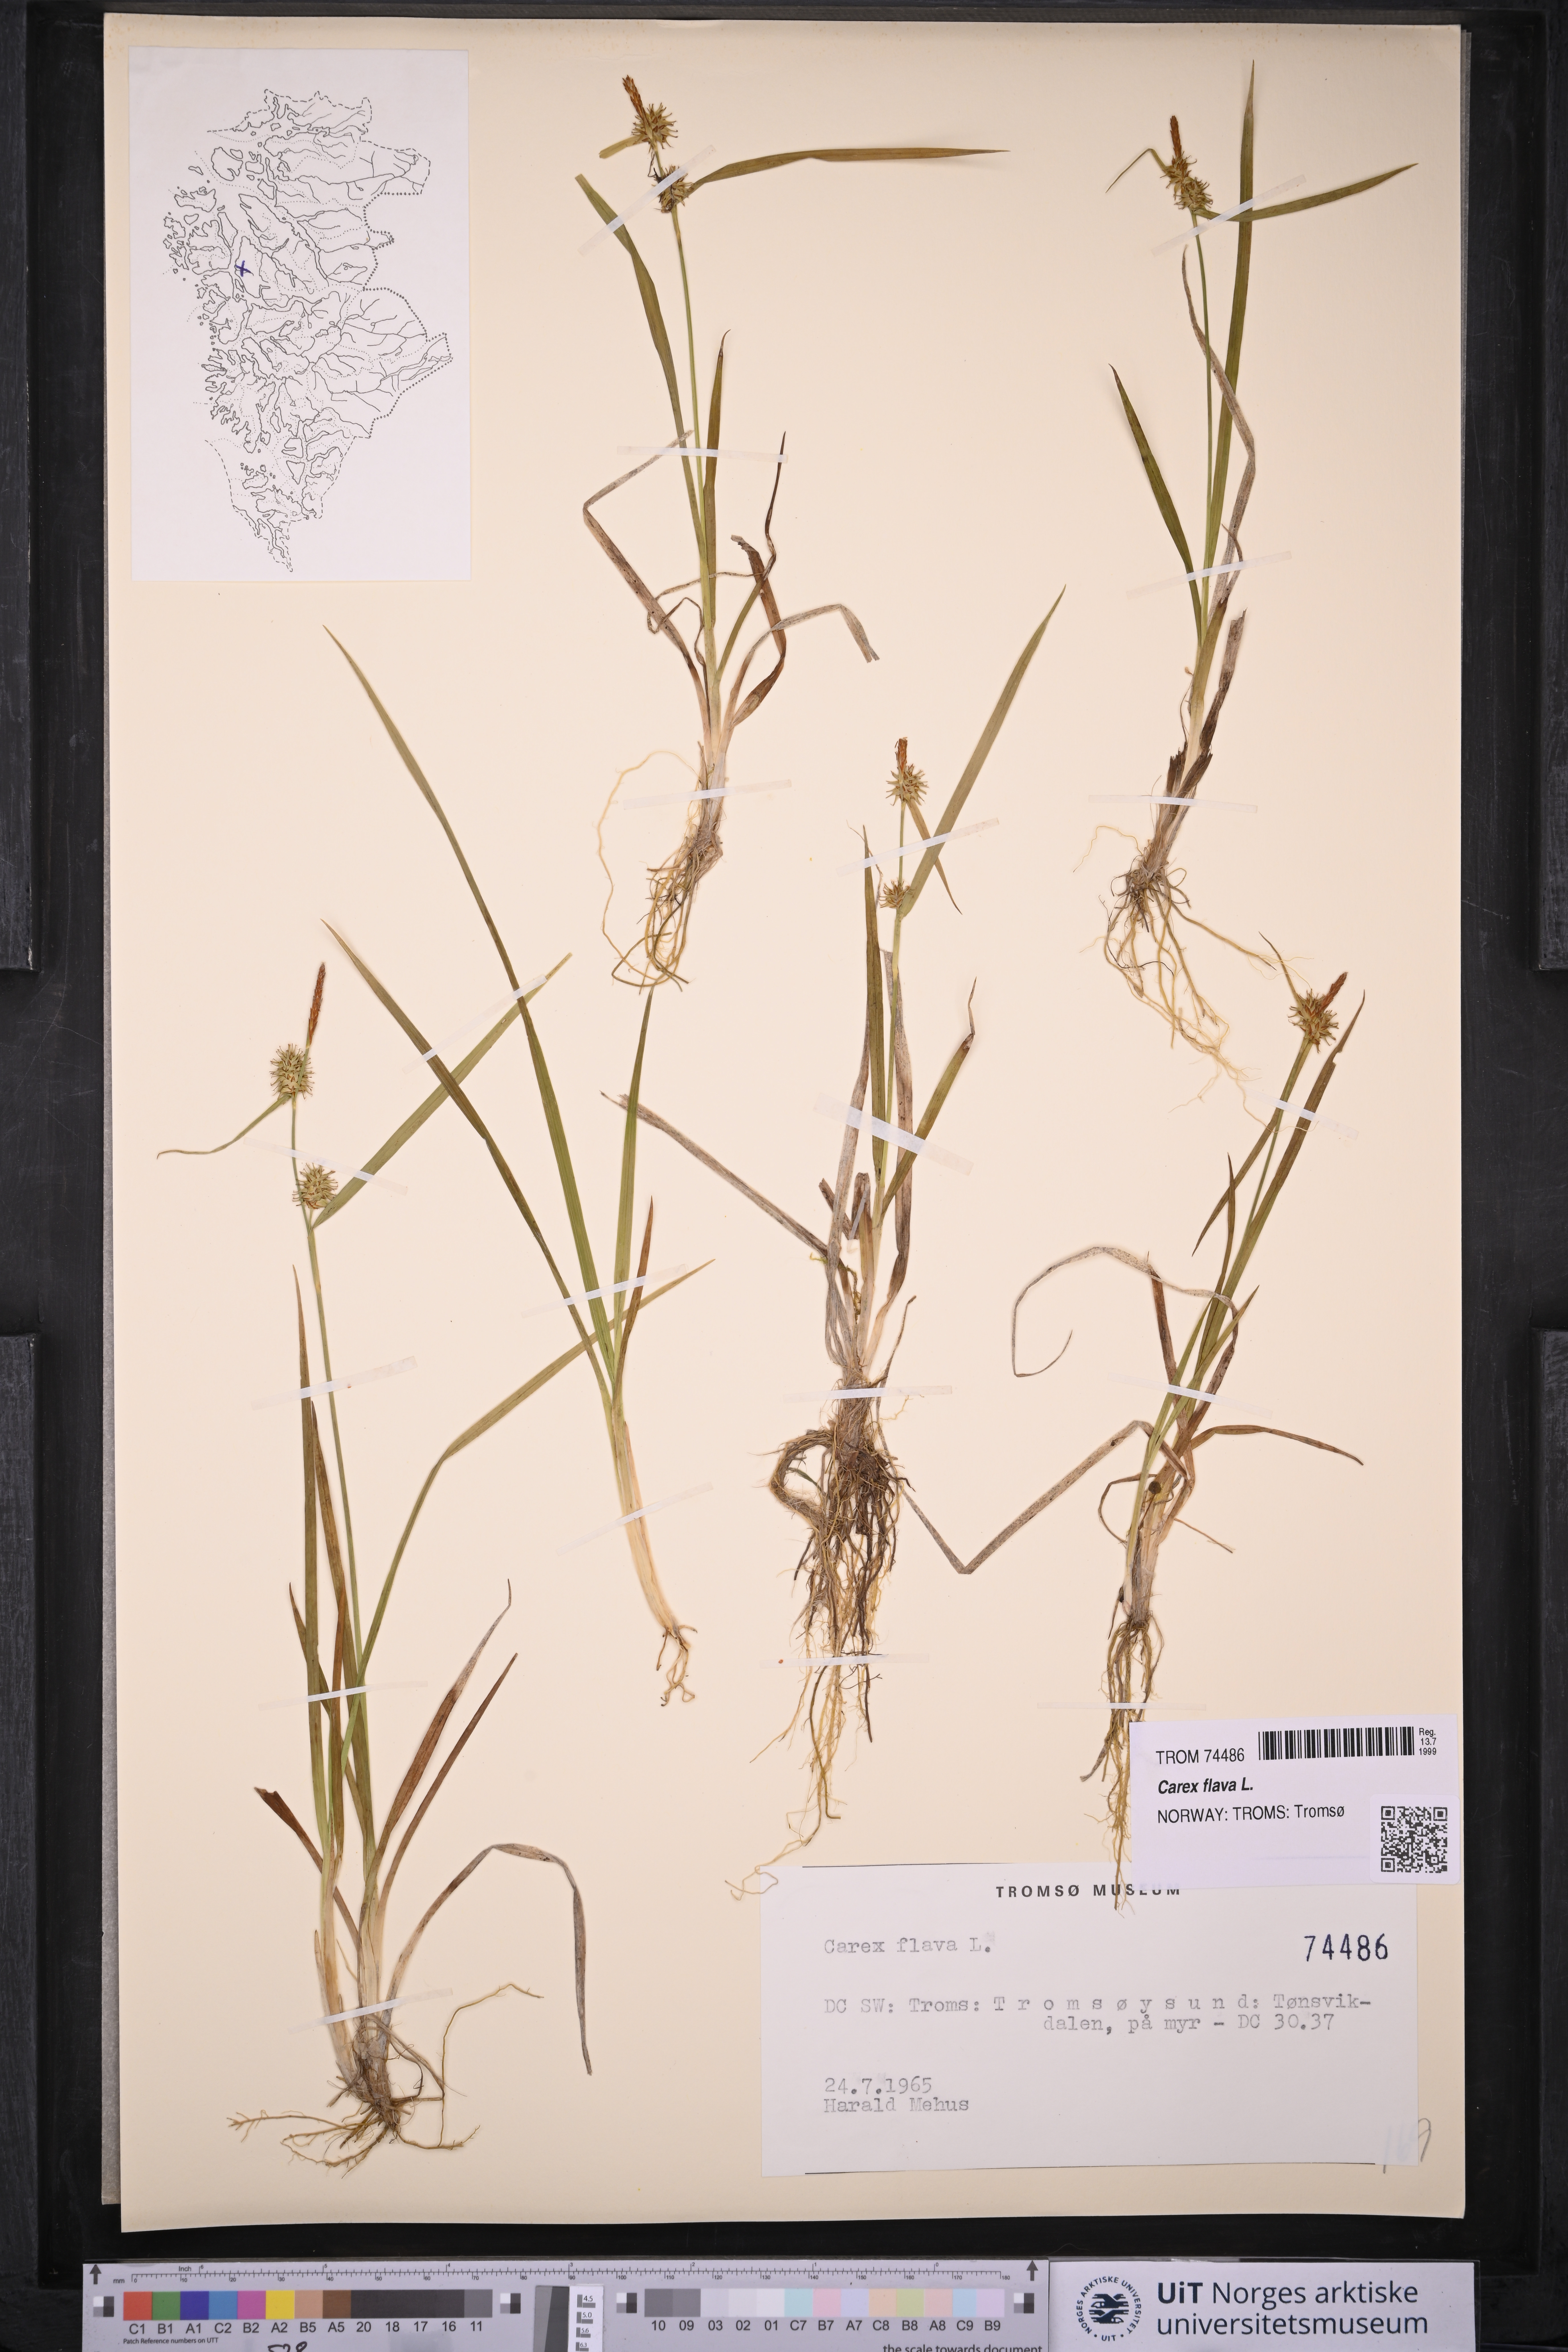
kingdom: Plantae
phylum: Tracheophyta
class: Liliopsida
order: Poales
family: Cyperaceae
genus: Carex
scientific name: Carex flava
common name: Large yellow-sedge
